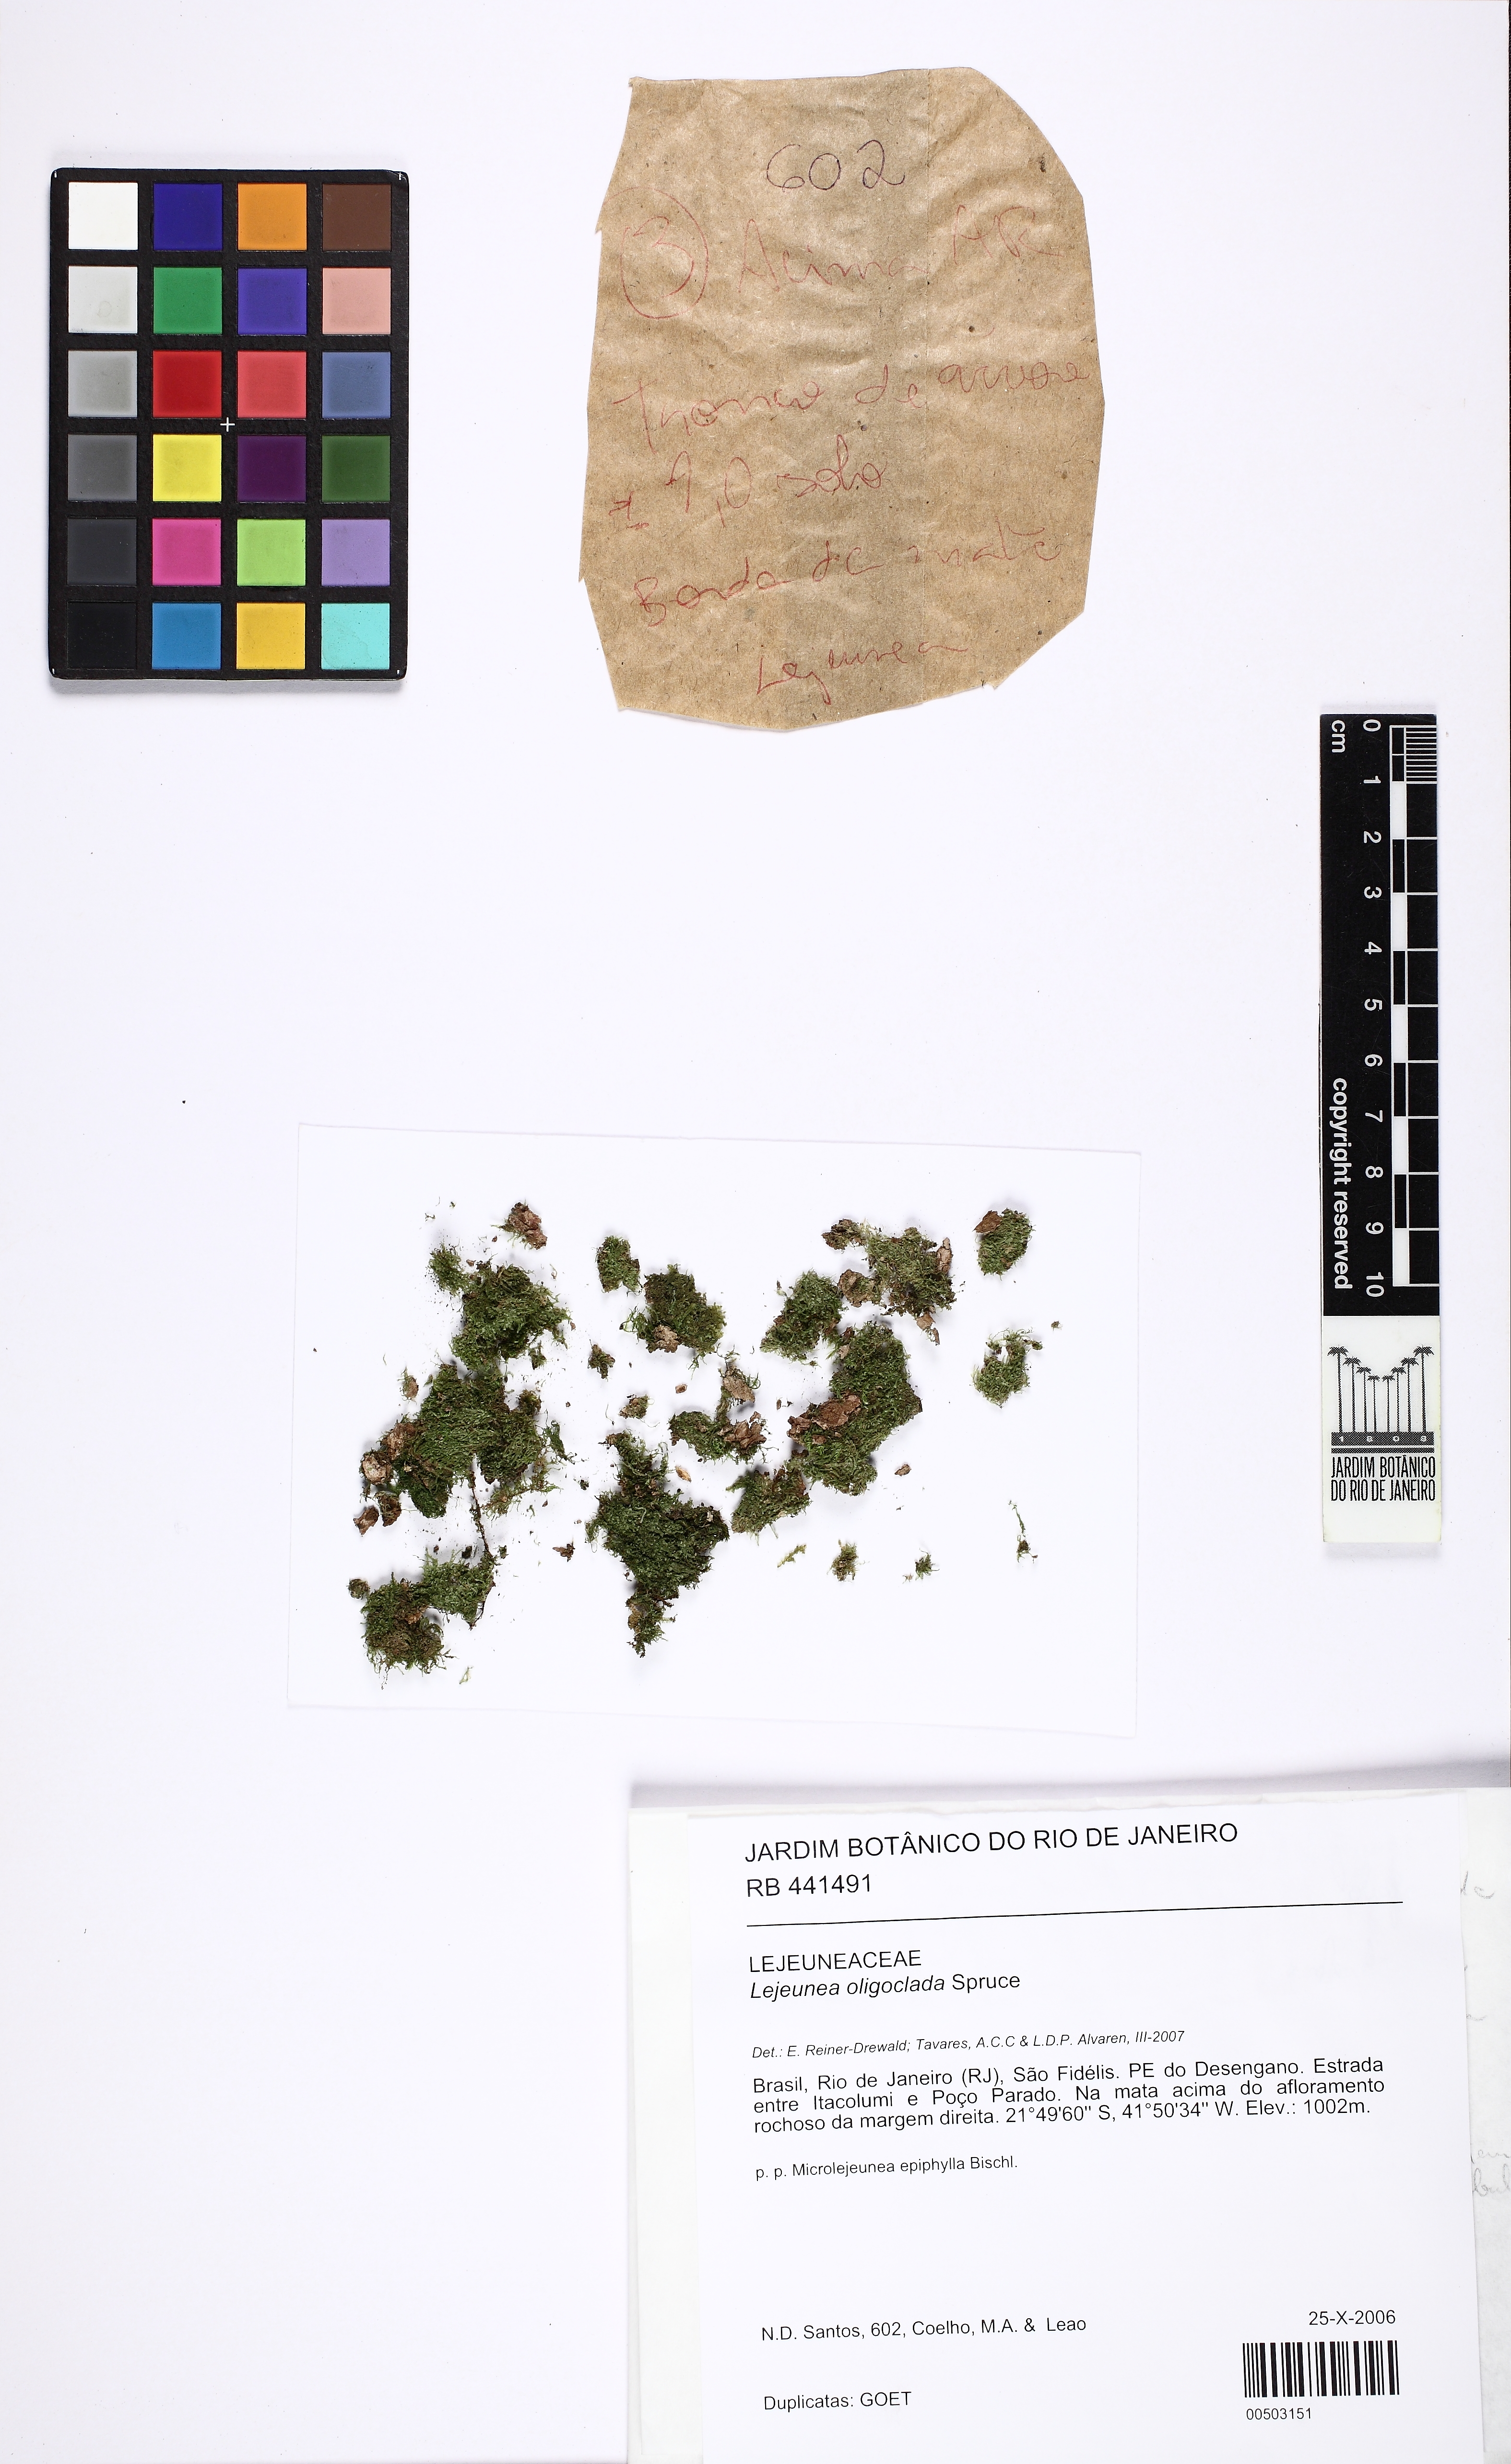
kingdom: Plantae
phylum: Marchantiophyta
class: Jungermanniopsida
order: Porellales
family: Lejeuneaceae
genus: Lejeunea
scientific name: Lejeunea oligoclada
